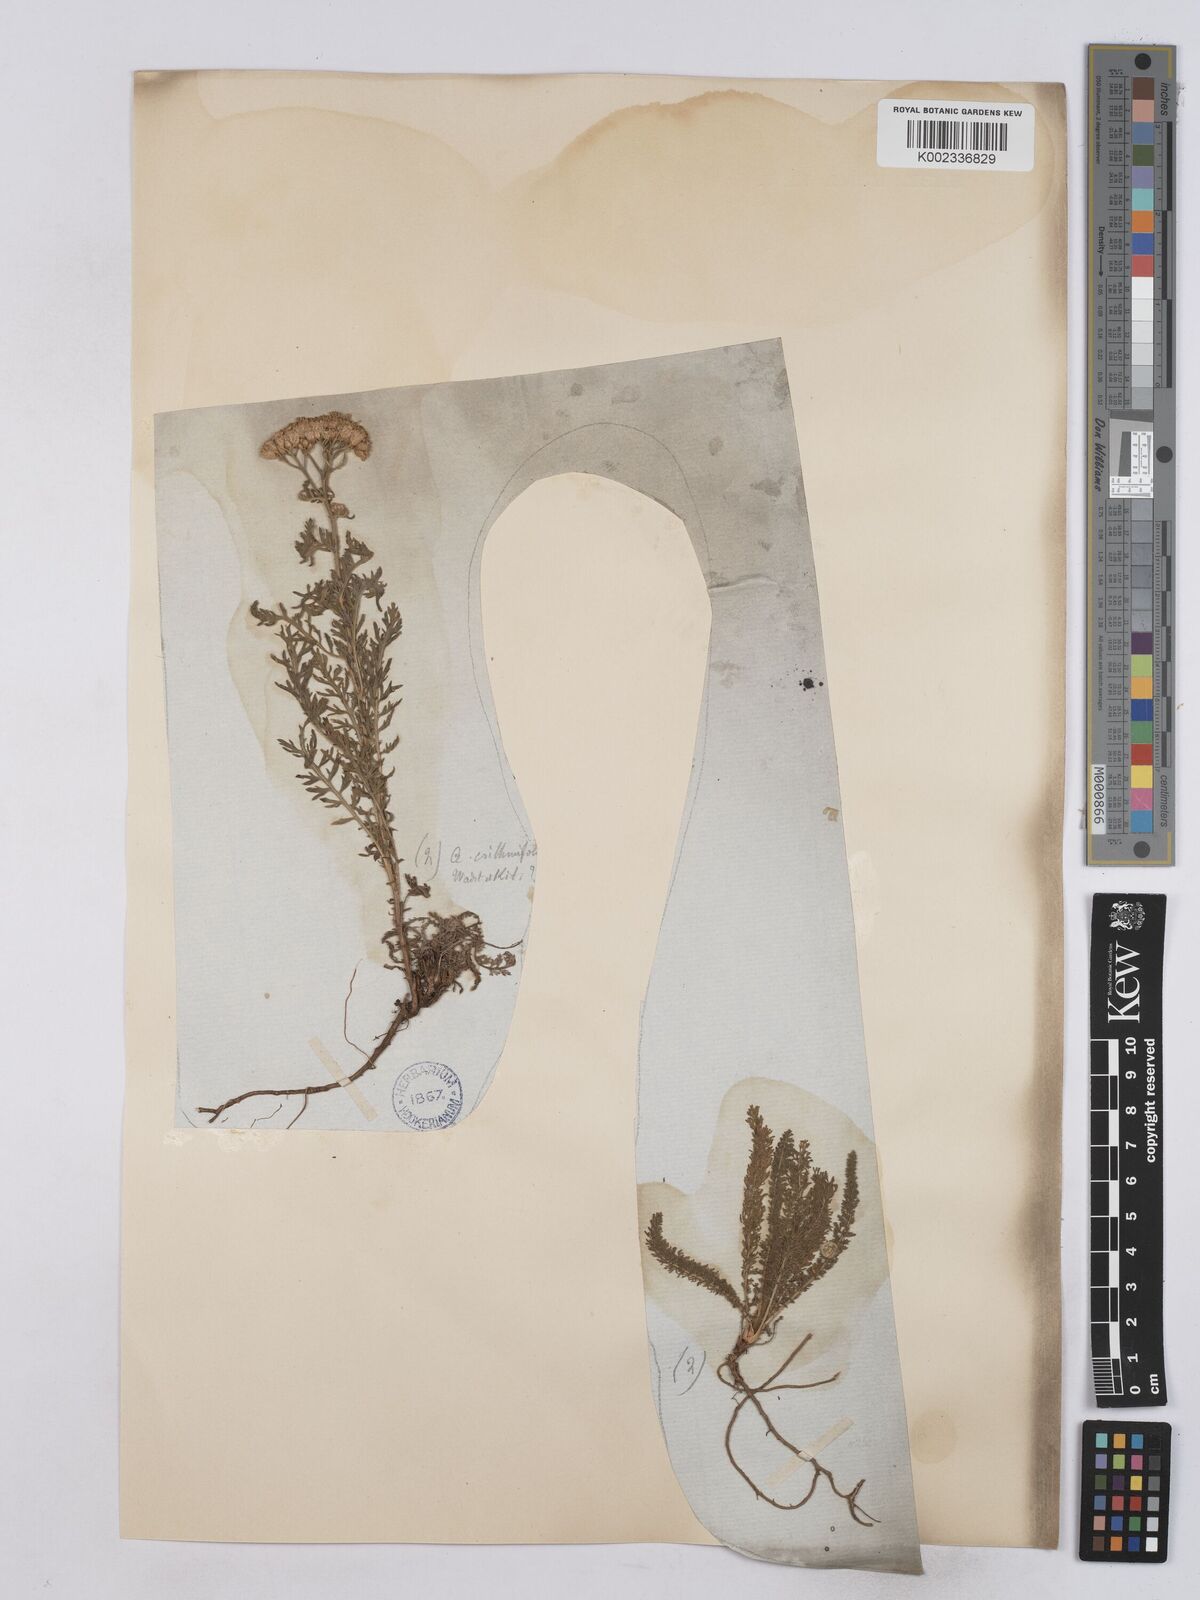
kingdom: Plantae
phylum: Tracheophyta
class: Magnoliopsida
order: Asterales
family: Asteraceae
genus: Achillea
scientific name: Achillea crithmifolia
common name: Yarrow
